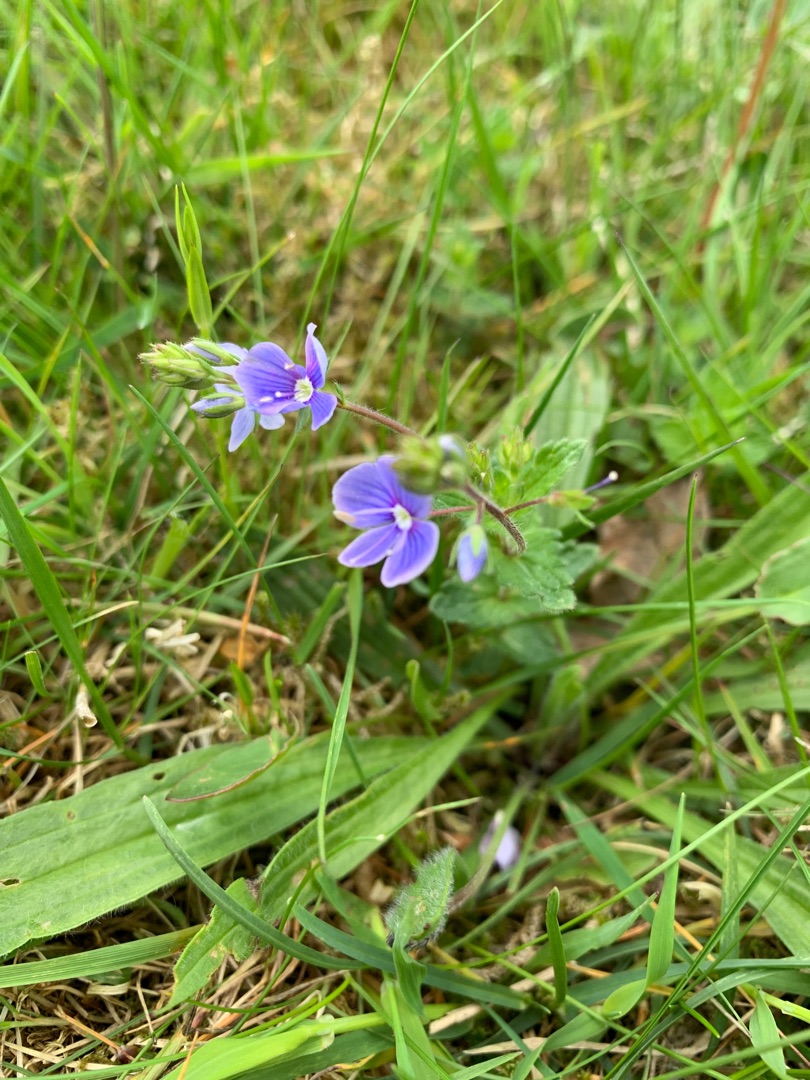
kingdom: Plantae
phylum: Tracheophyta
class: Magnoliopsida
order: Lamiales
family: Plantaginaceae
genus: Veronica
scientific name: Veronica chamaedrys
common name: Tveskægget ærenpris
